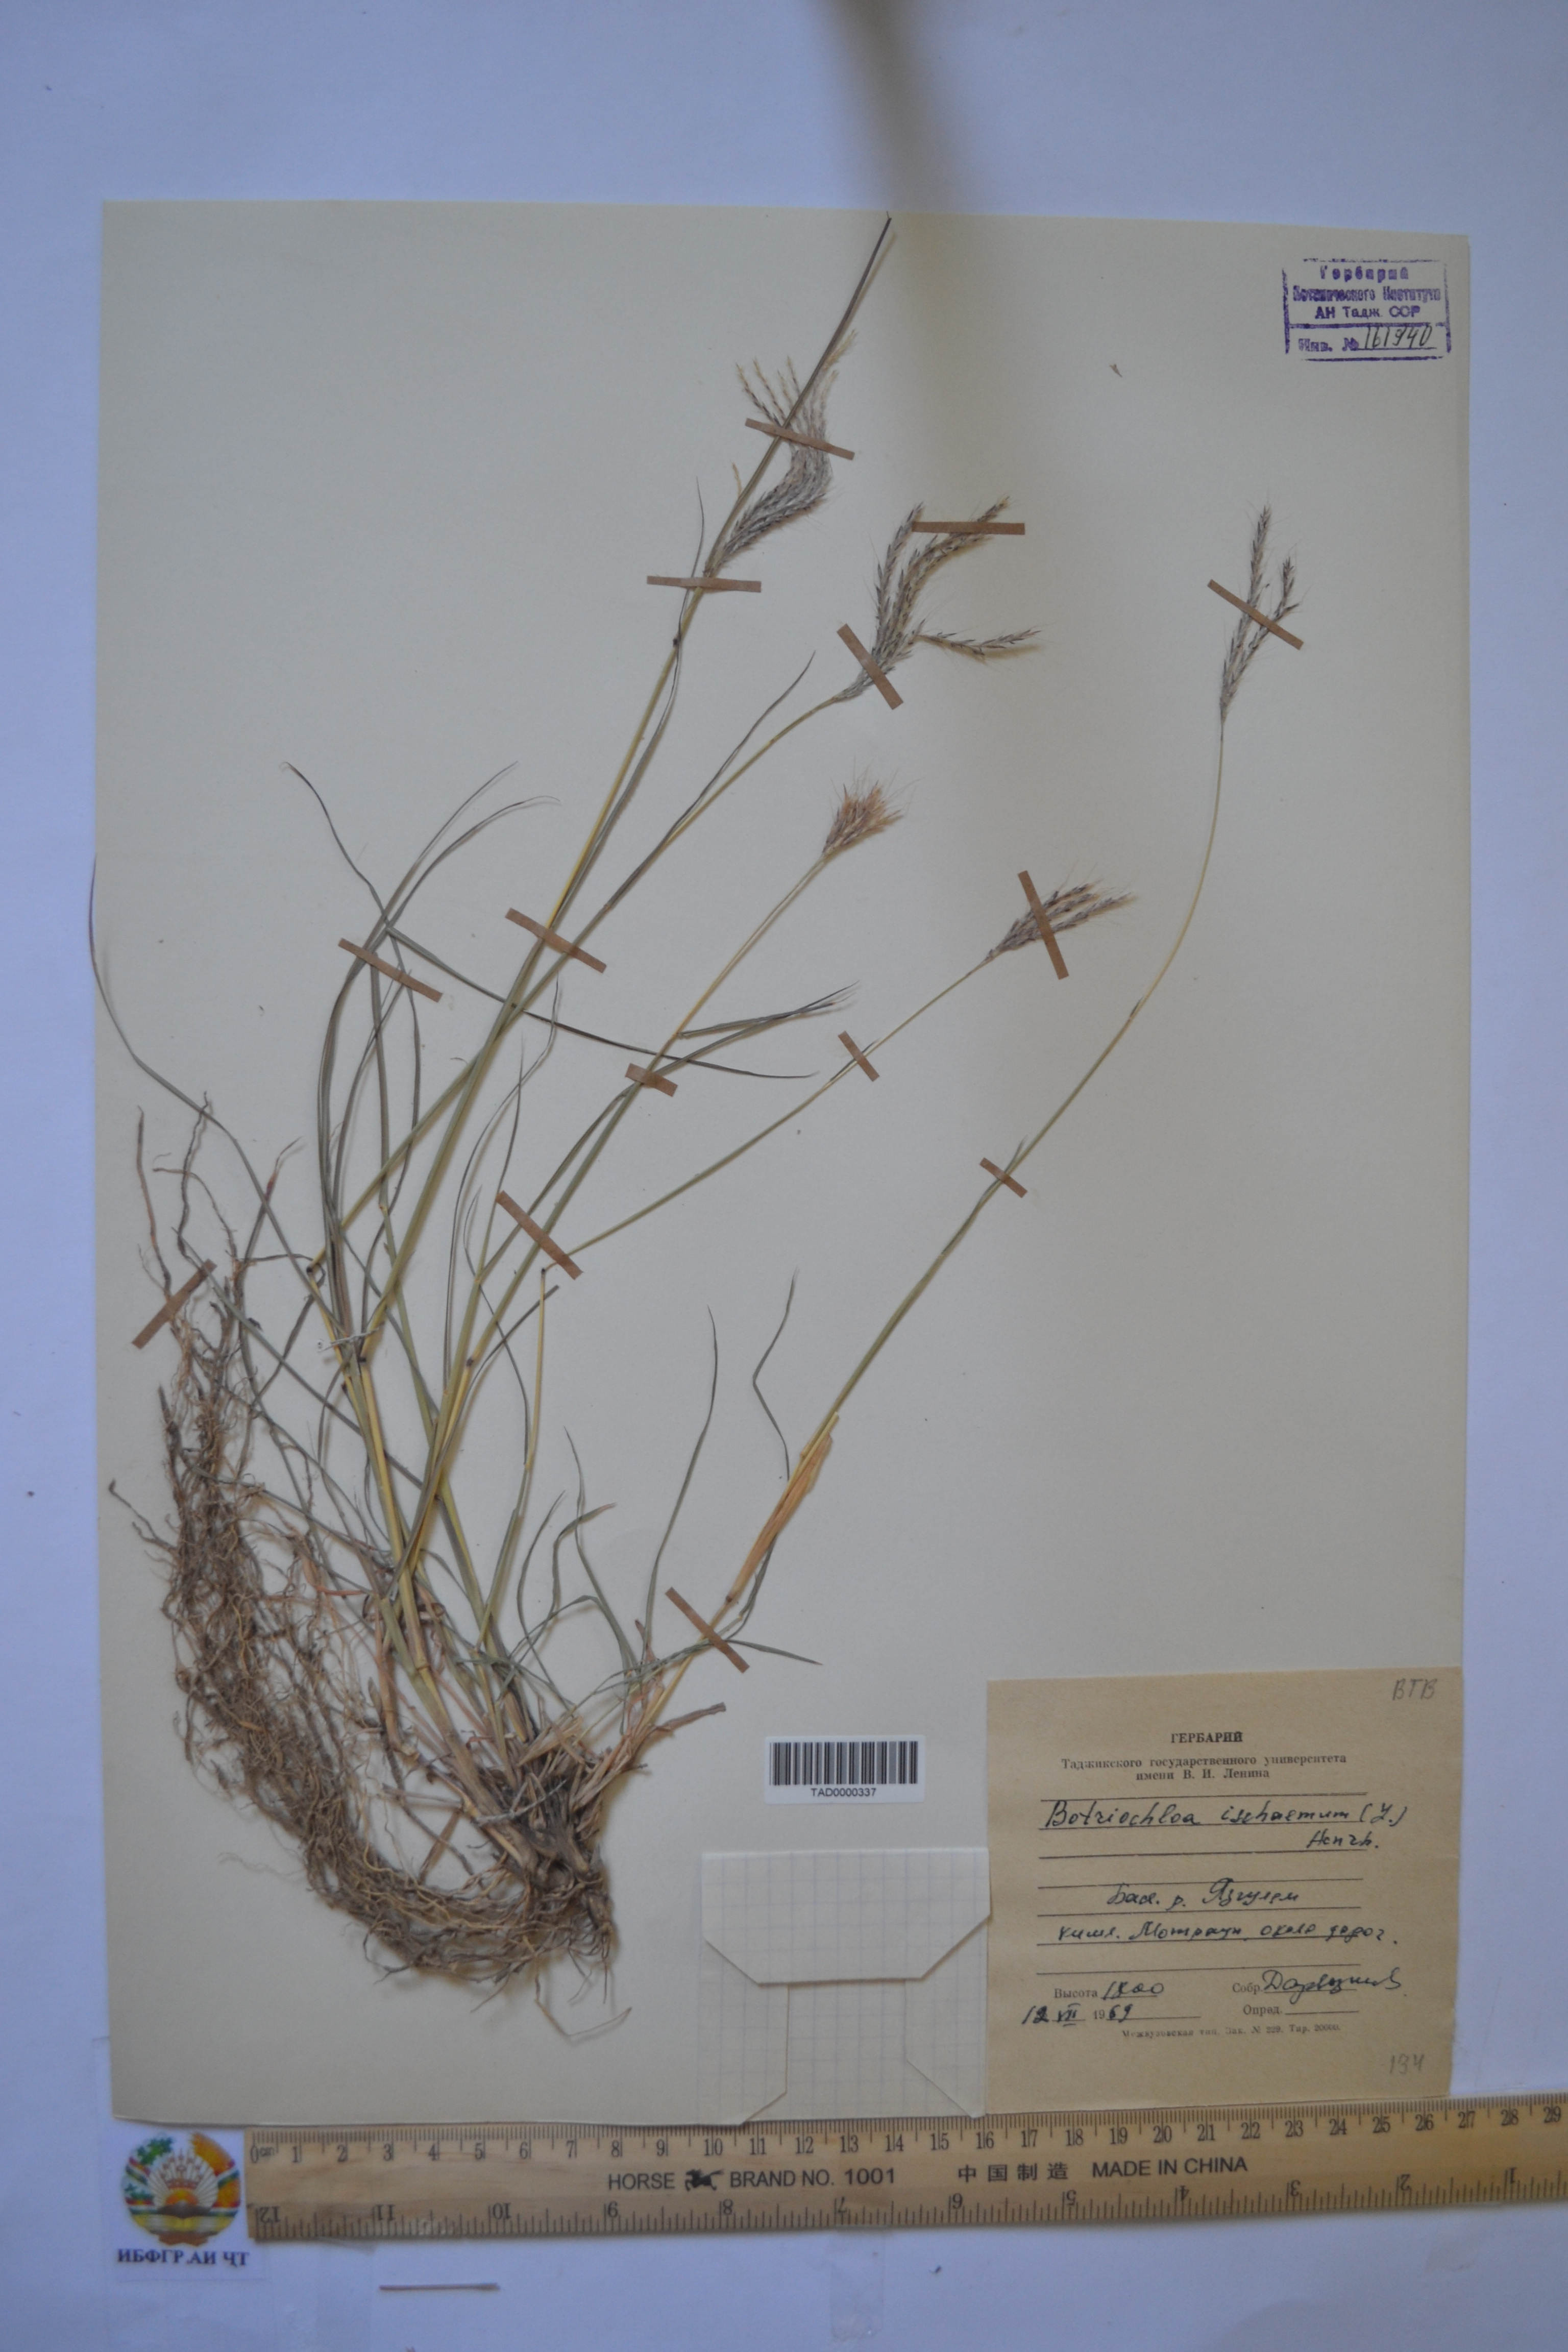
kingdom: Plantae
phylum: Tracheophyta
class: Liliopsida
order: Poales
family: Poaceae
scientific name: Poaceae
